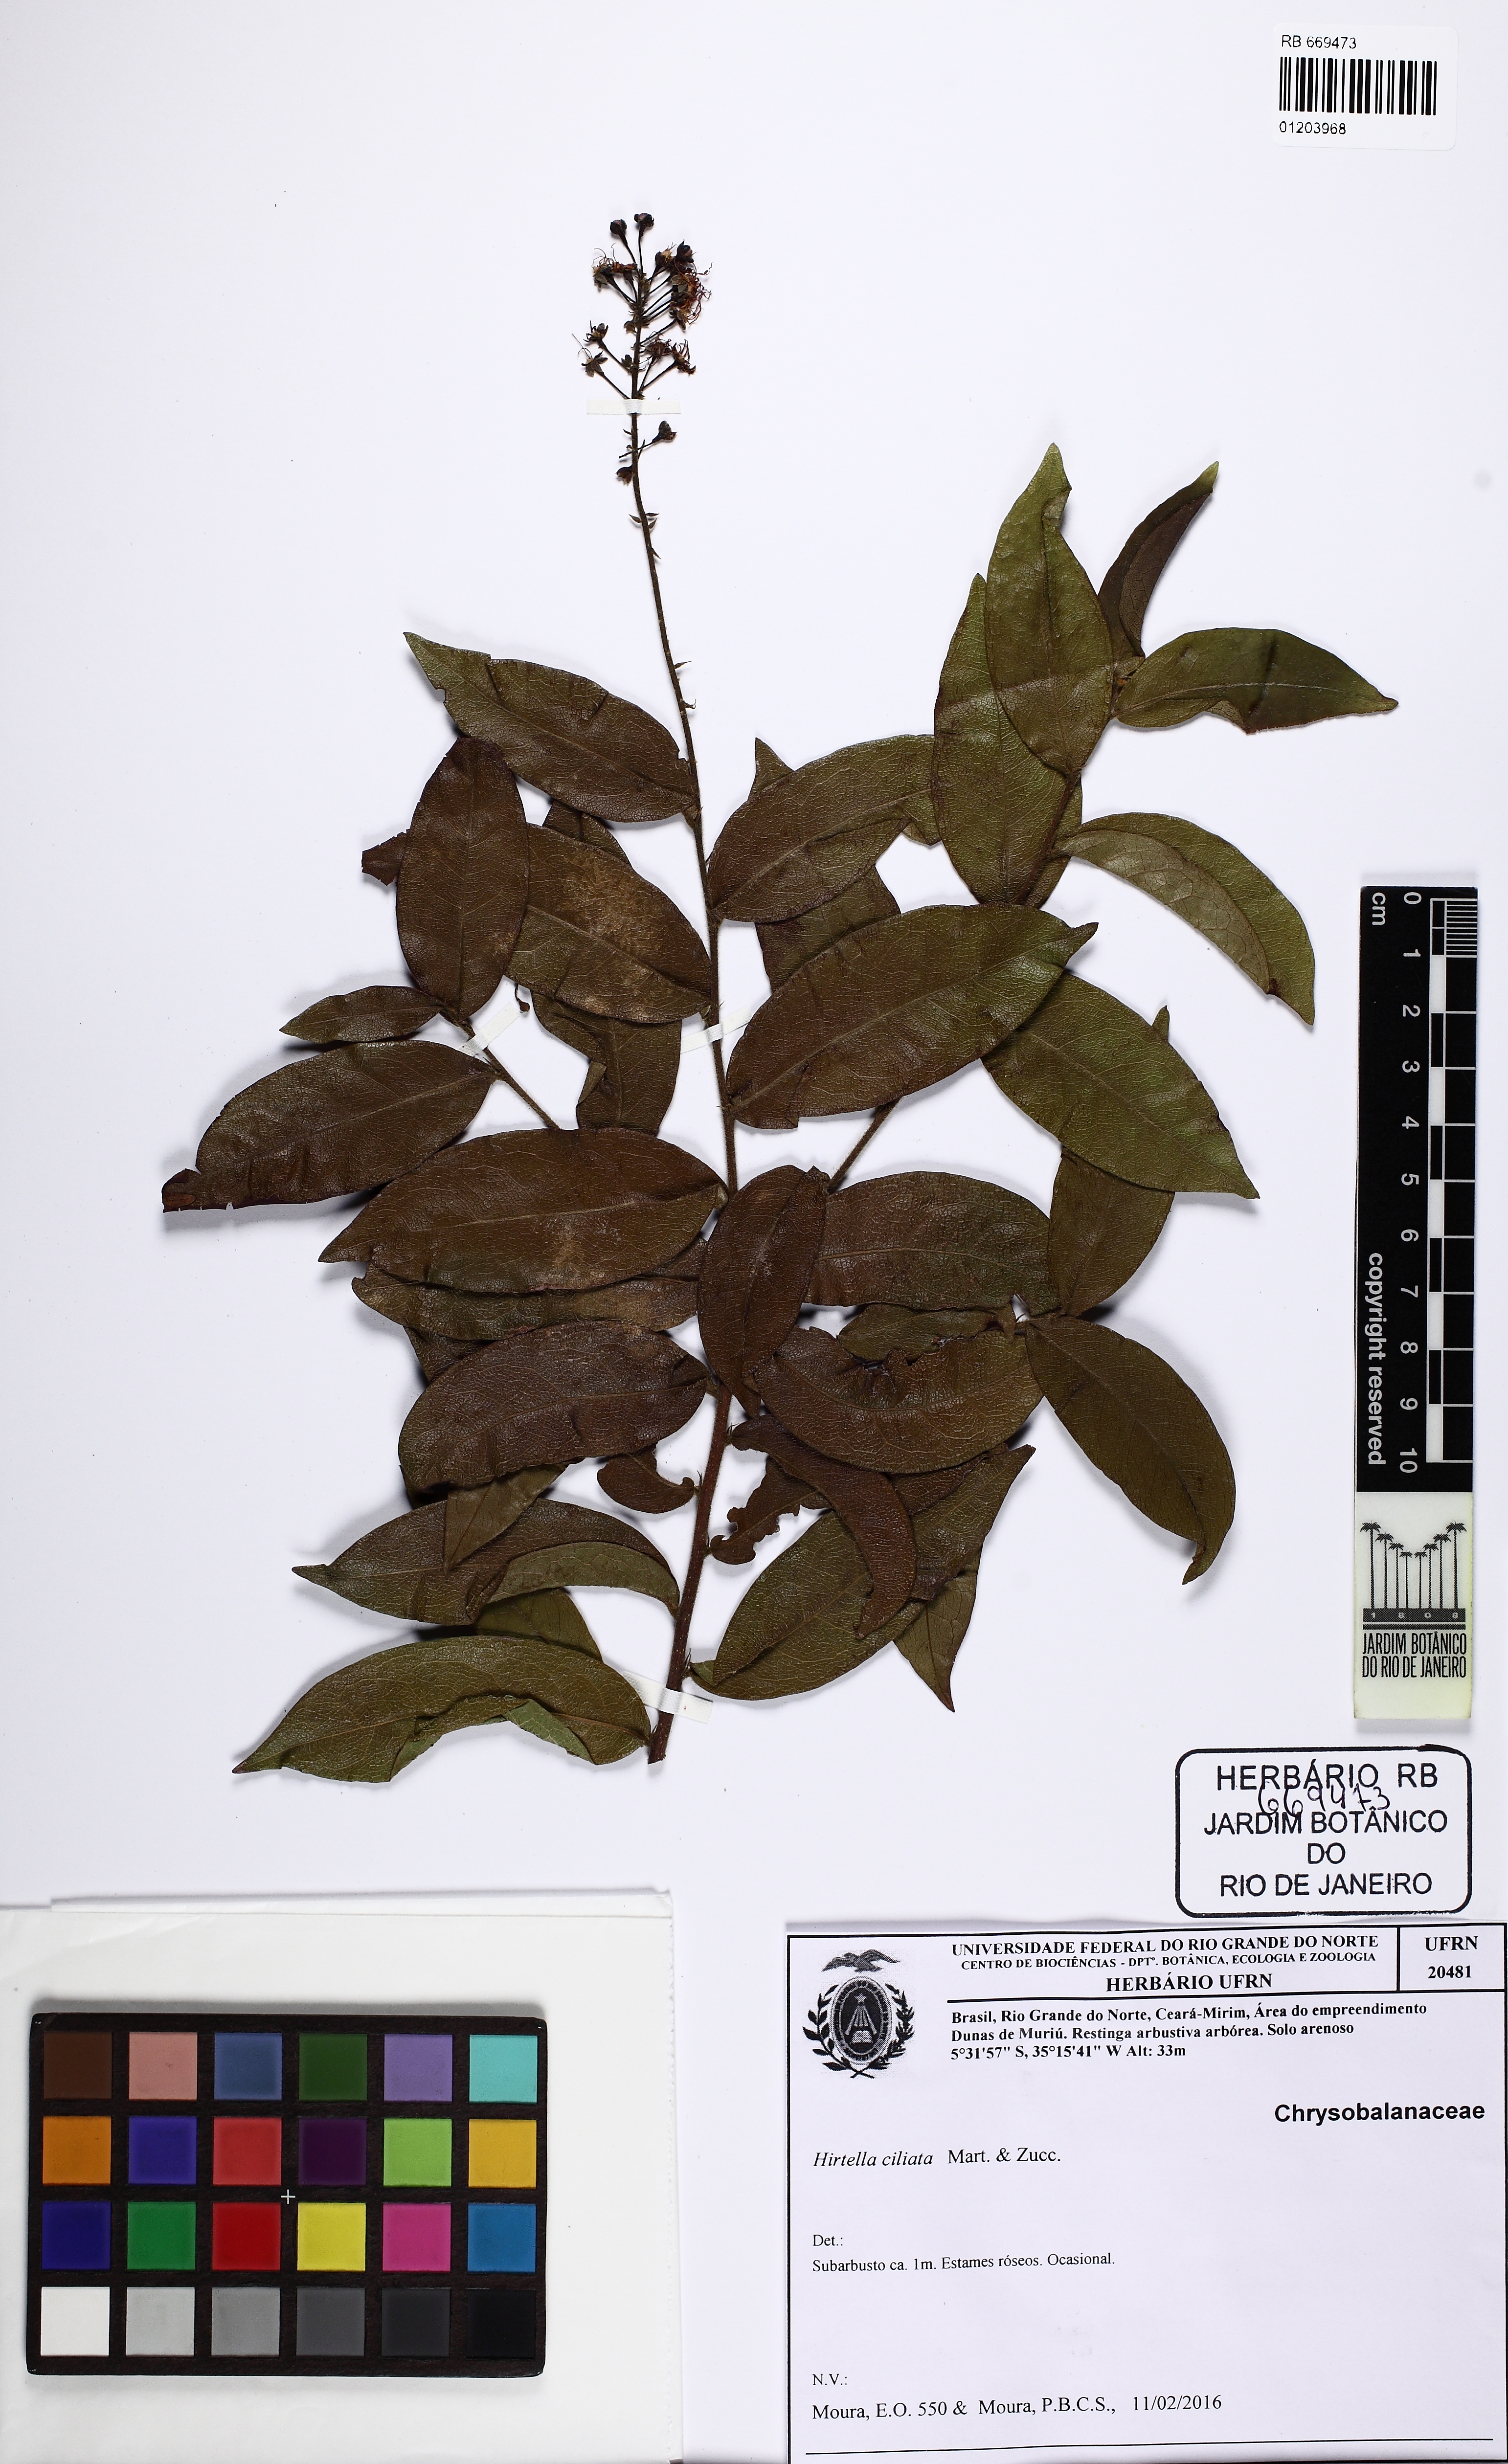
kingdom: Plantae
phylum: Tracheophyta
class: Magnoliopsida
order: Malpighiales
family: Chrysobalanaceae
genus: Hirtella
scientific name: Hirtella racemosa
